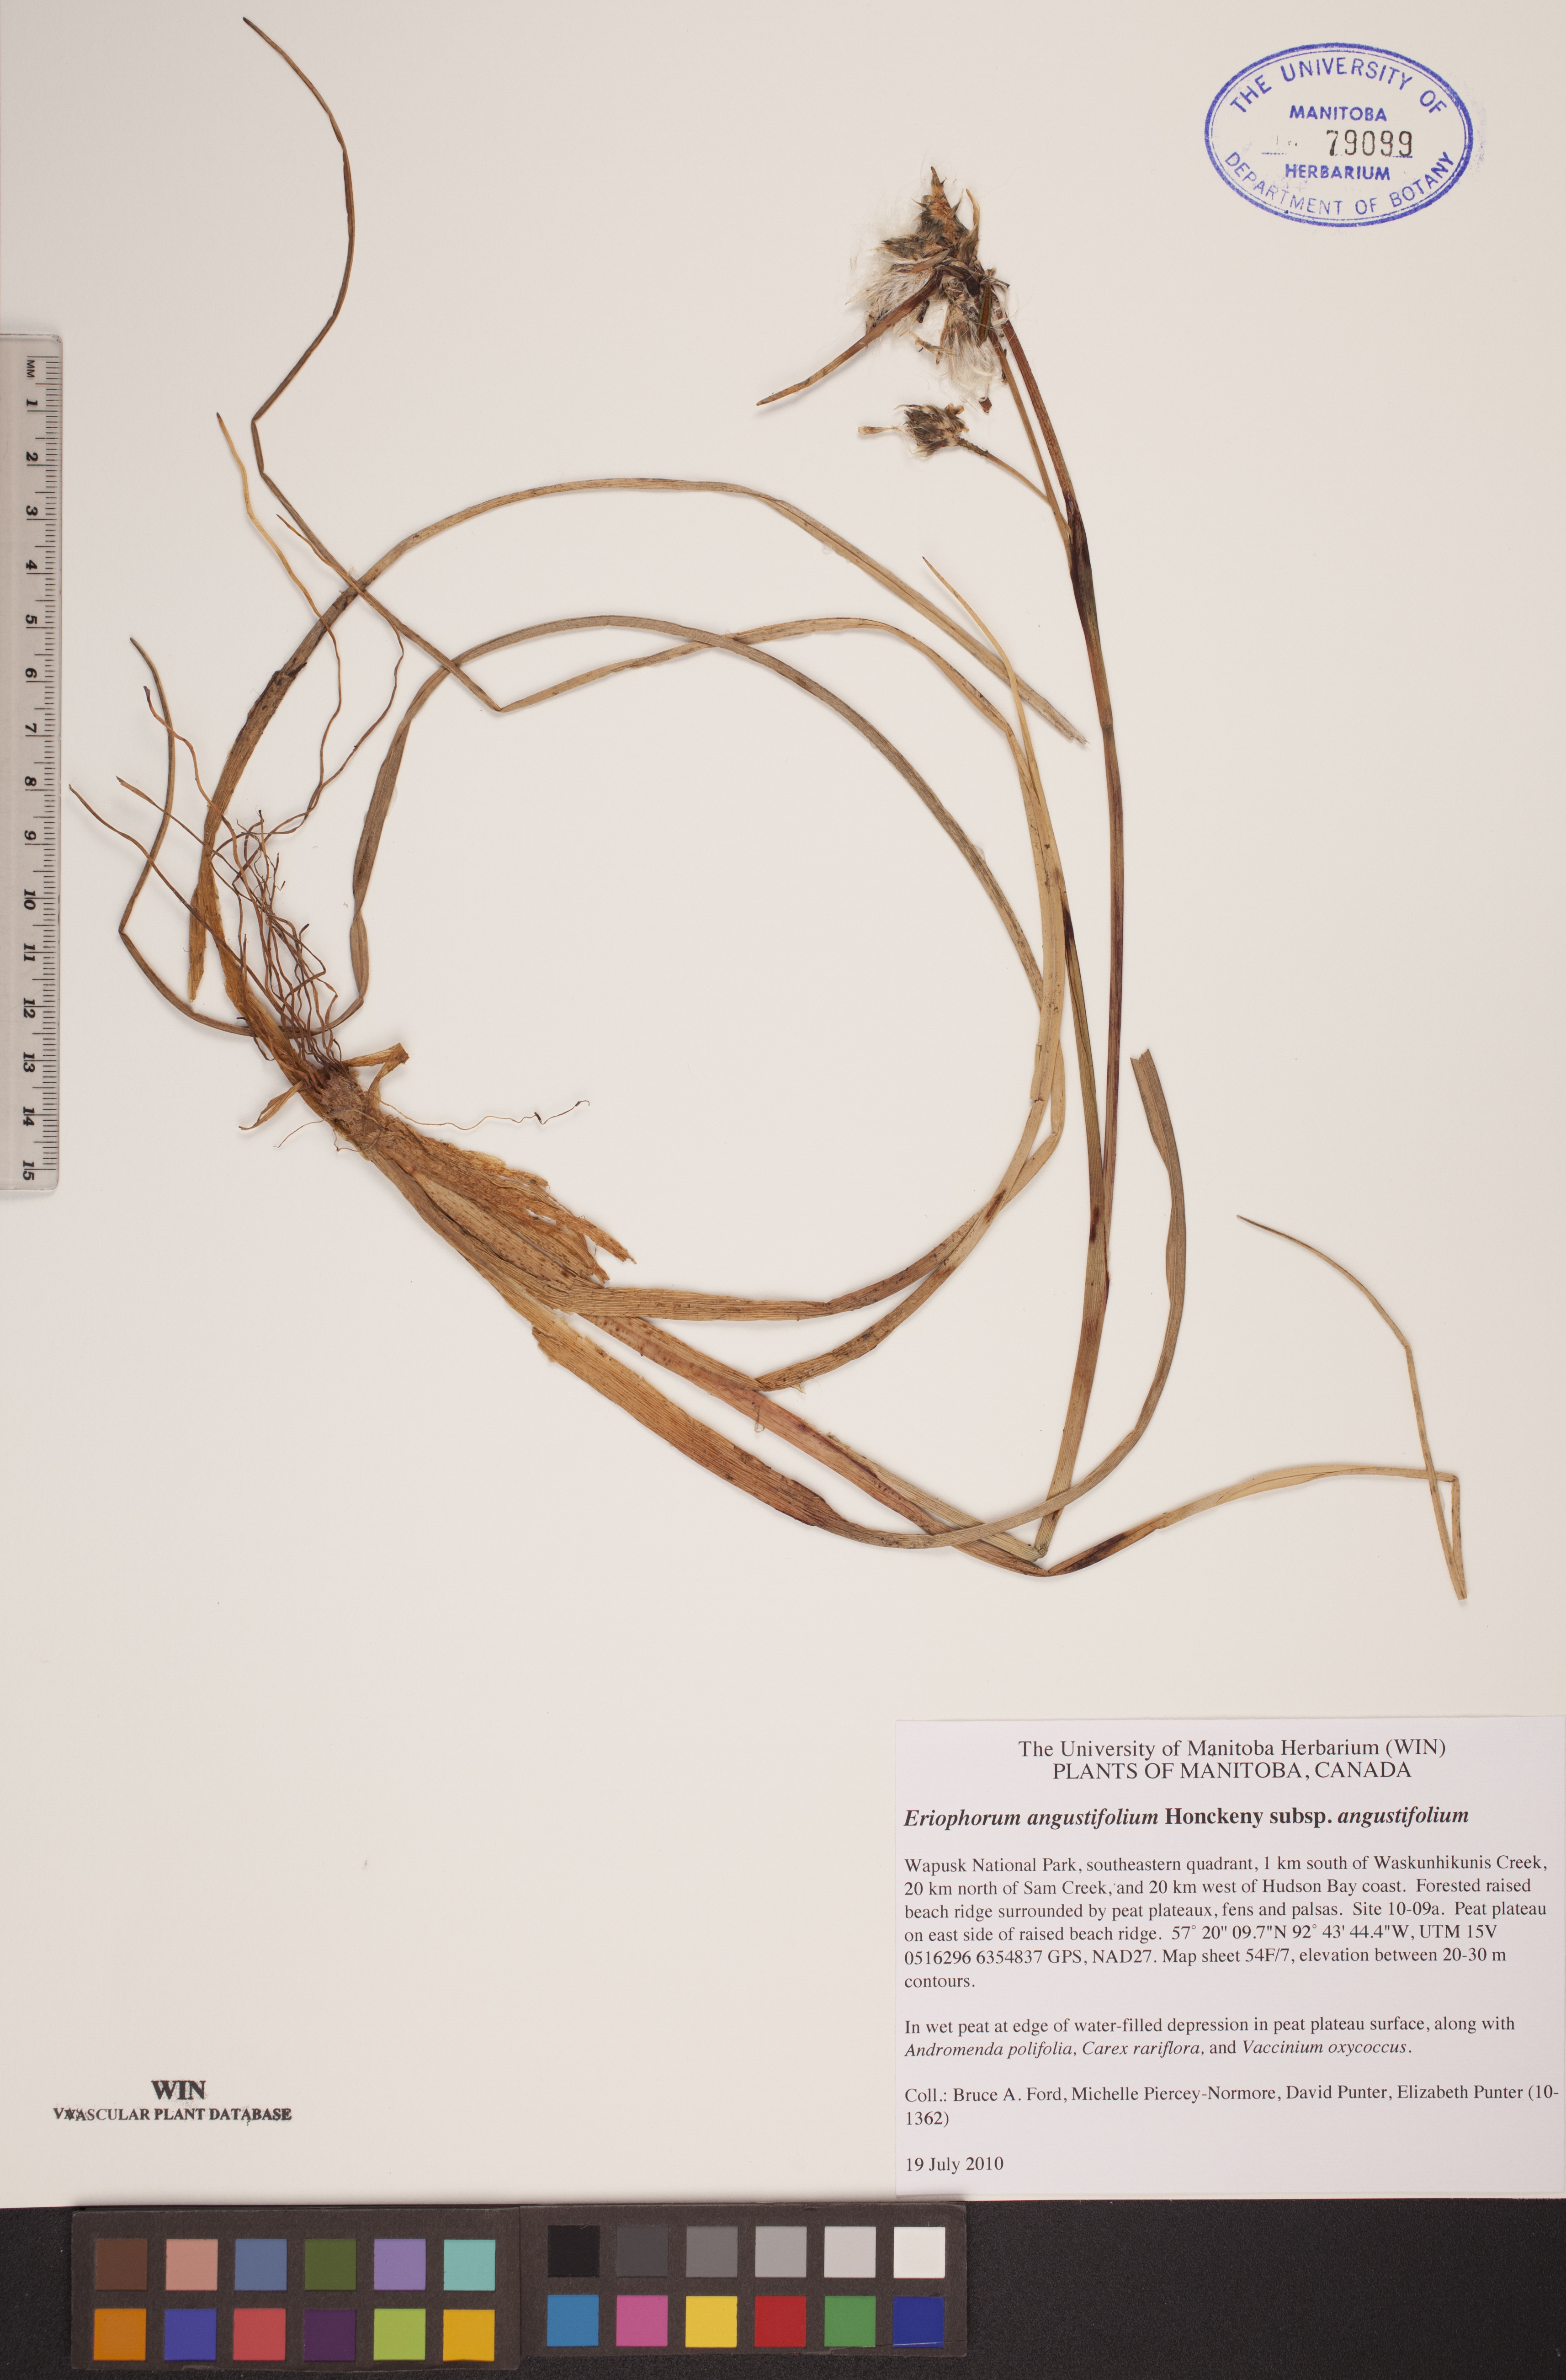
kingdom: Plantae
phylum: Tracheophyta
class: Liliopsida
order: Poales
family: Cyperaceae
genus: Eriophorum
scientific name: Eriophorum angustifolium
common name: Common cottongrass
